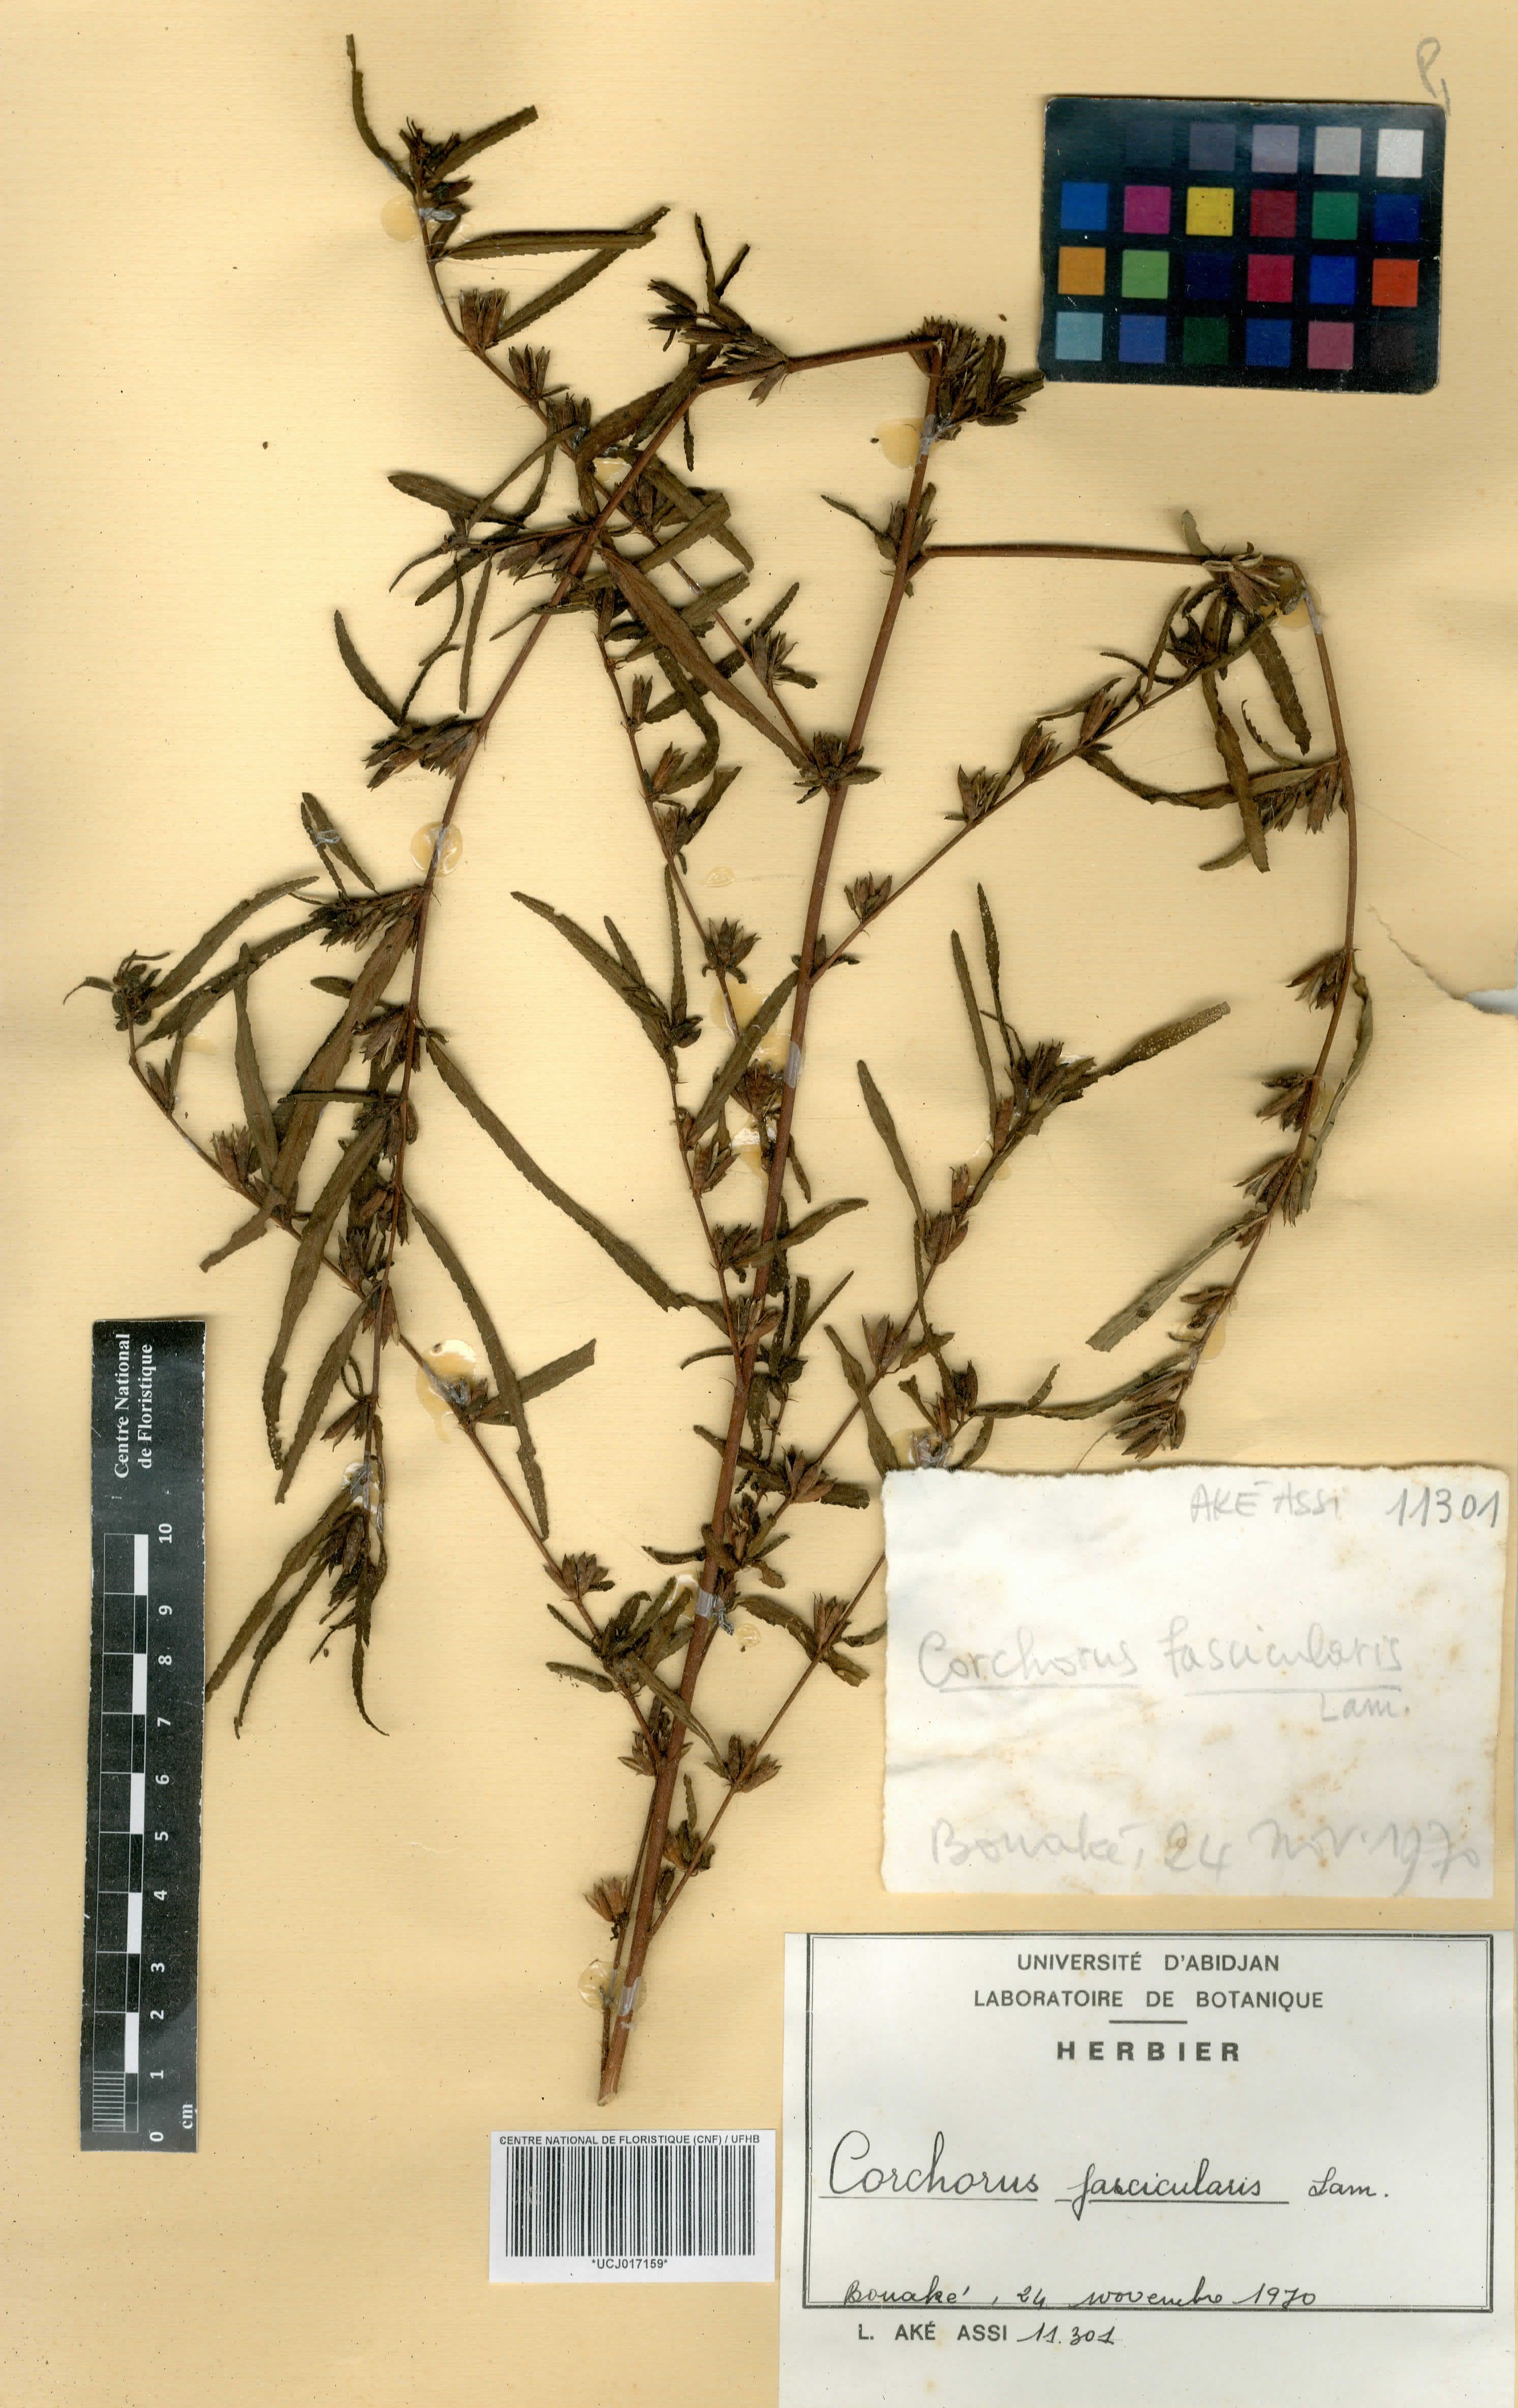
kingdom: Plantae
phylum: Tracheophyta
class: Magnoliopsida
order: Malvales
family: Malvaceae
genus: Corchorus
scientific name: Corchorus fascicularis
